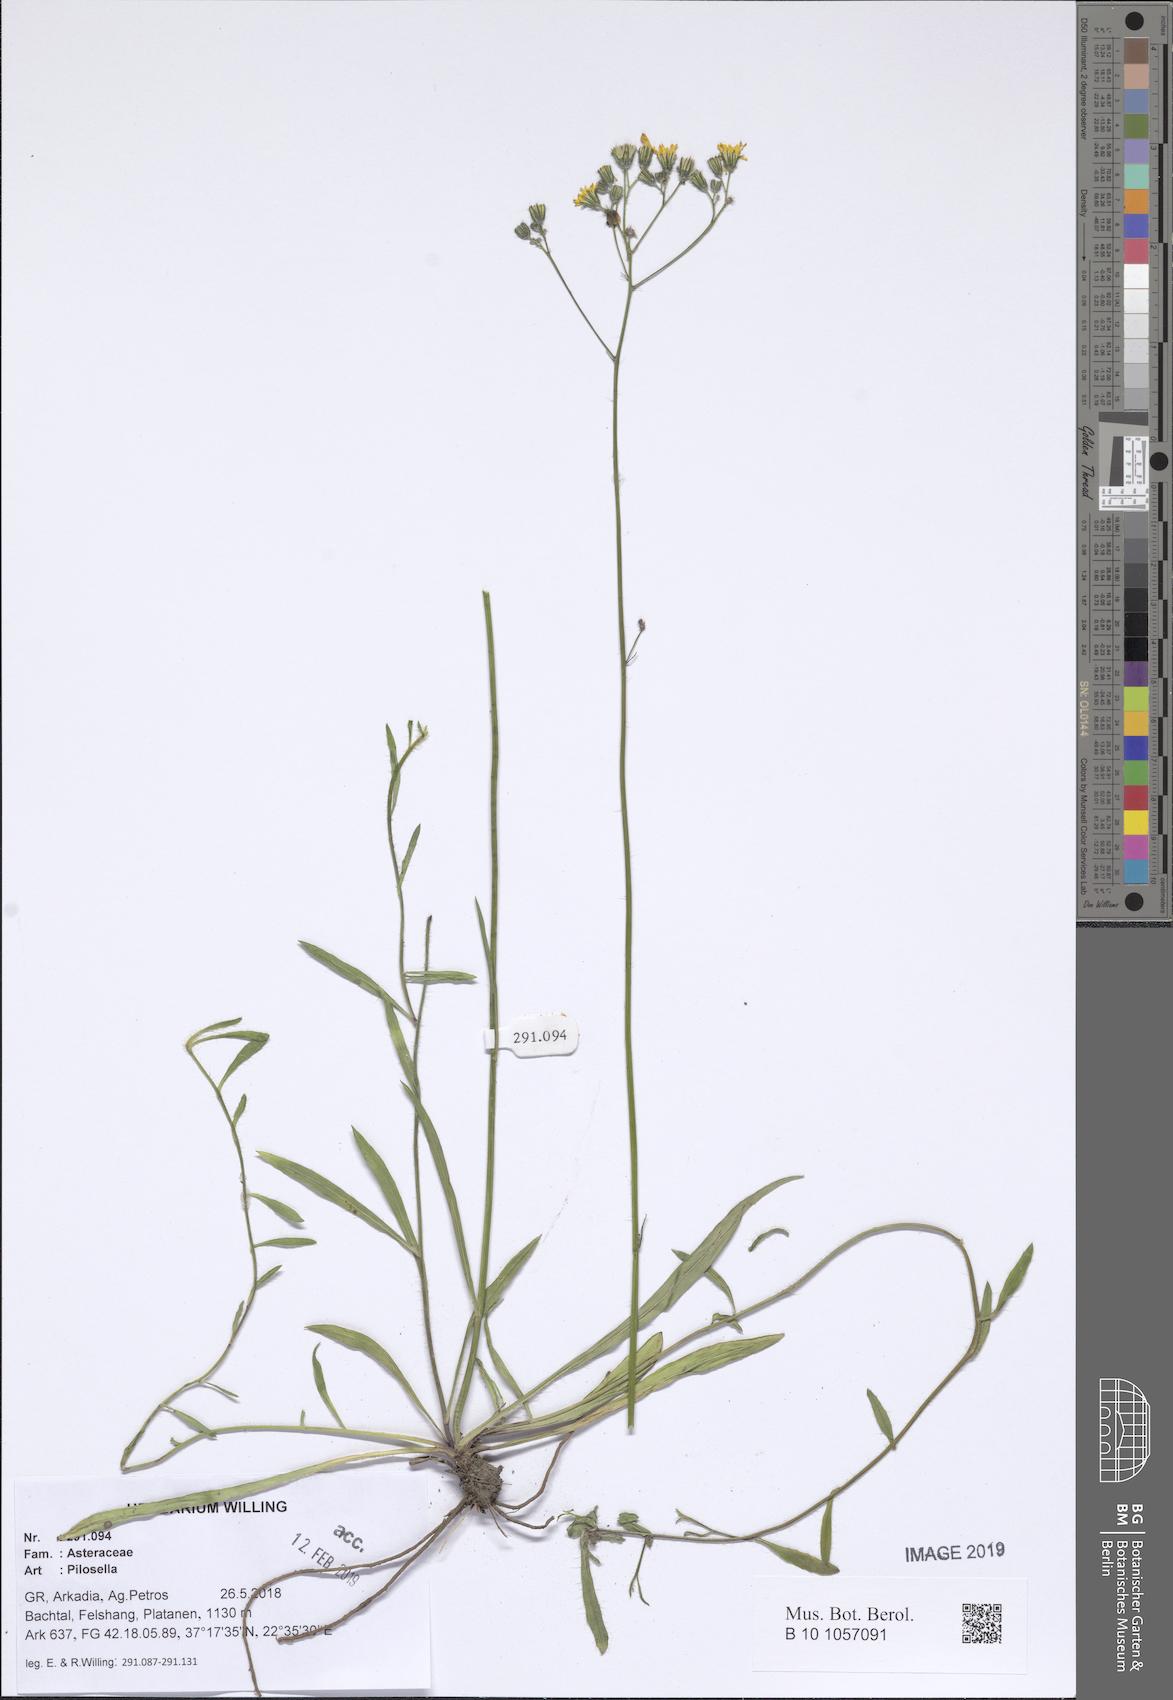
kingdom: Plantae
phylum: Tracheophyta
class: Magnoliopsida
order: Asterales
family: Asteraceae
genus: Pilosella
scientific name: Pilosella
